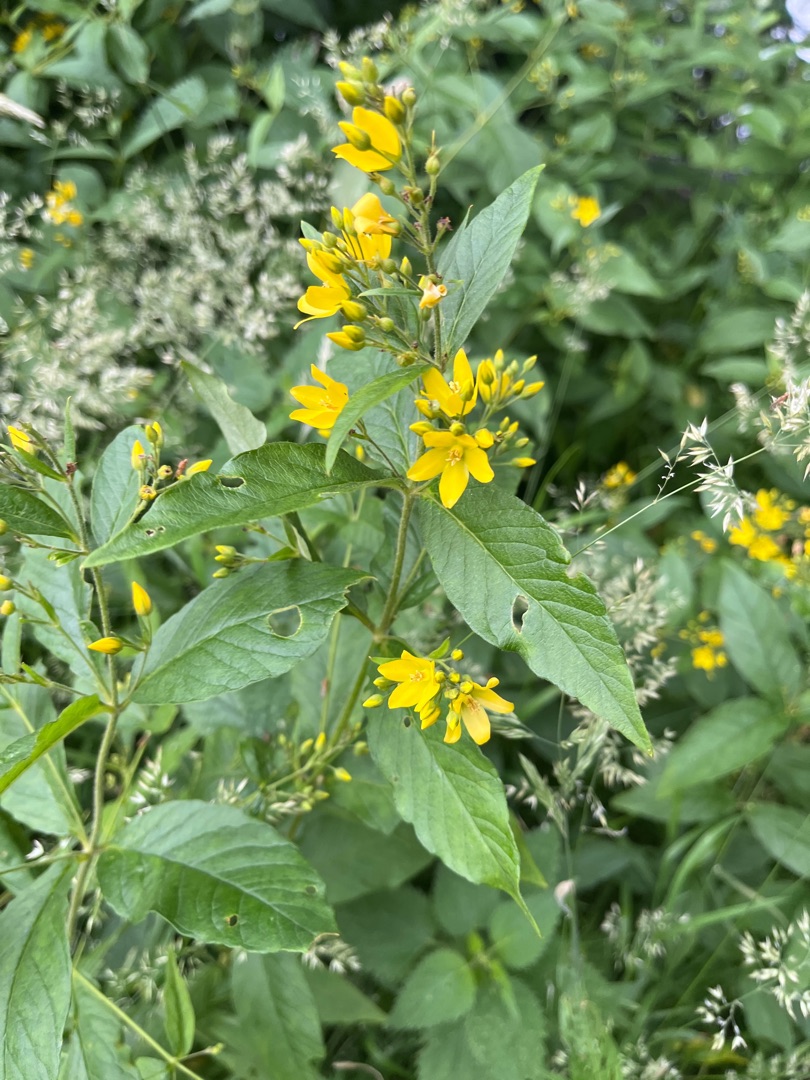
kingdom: Plantae
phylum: Tracheophyta
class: Magnoliopsida
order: Ericales
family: Primulaceae
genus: Lysimachia
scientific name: Lysimachia vulgaris
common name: Almindelig fredløs
